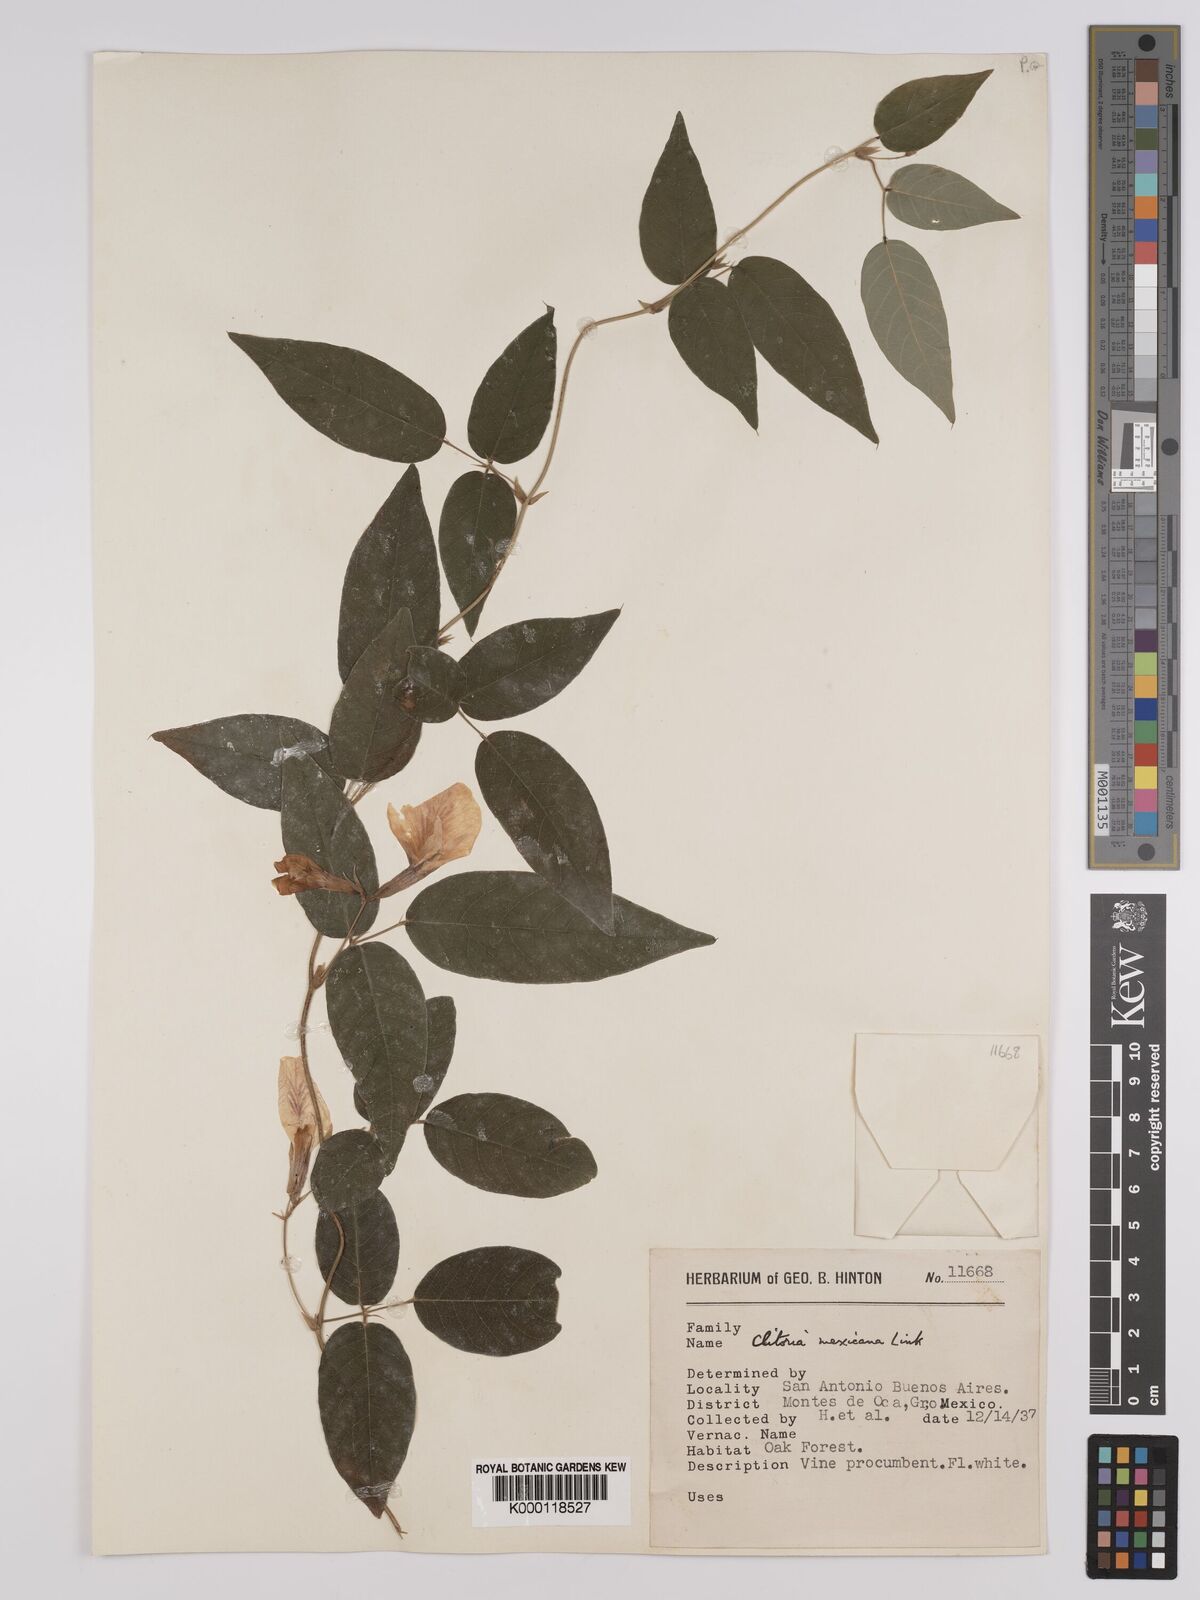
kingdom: Plantae
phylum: Tracheophyta
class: Magnoliopsida
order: Fabales
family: Fabaceae
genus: Clitoria
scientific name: Clitoria mexicana
